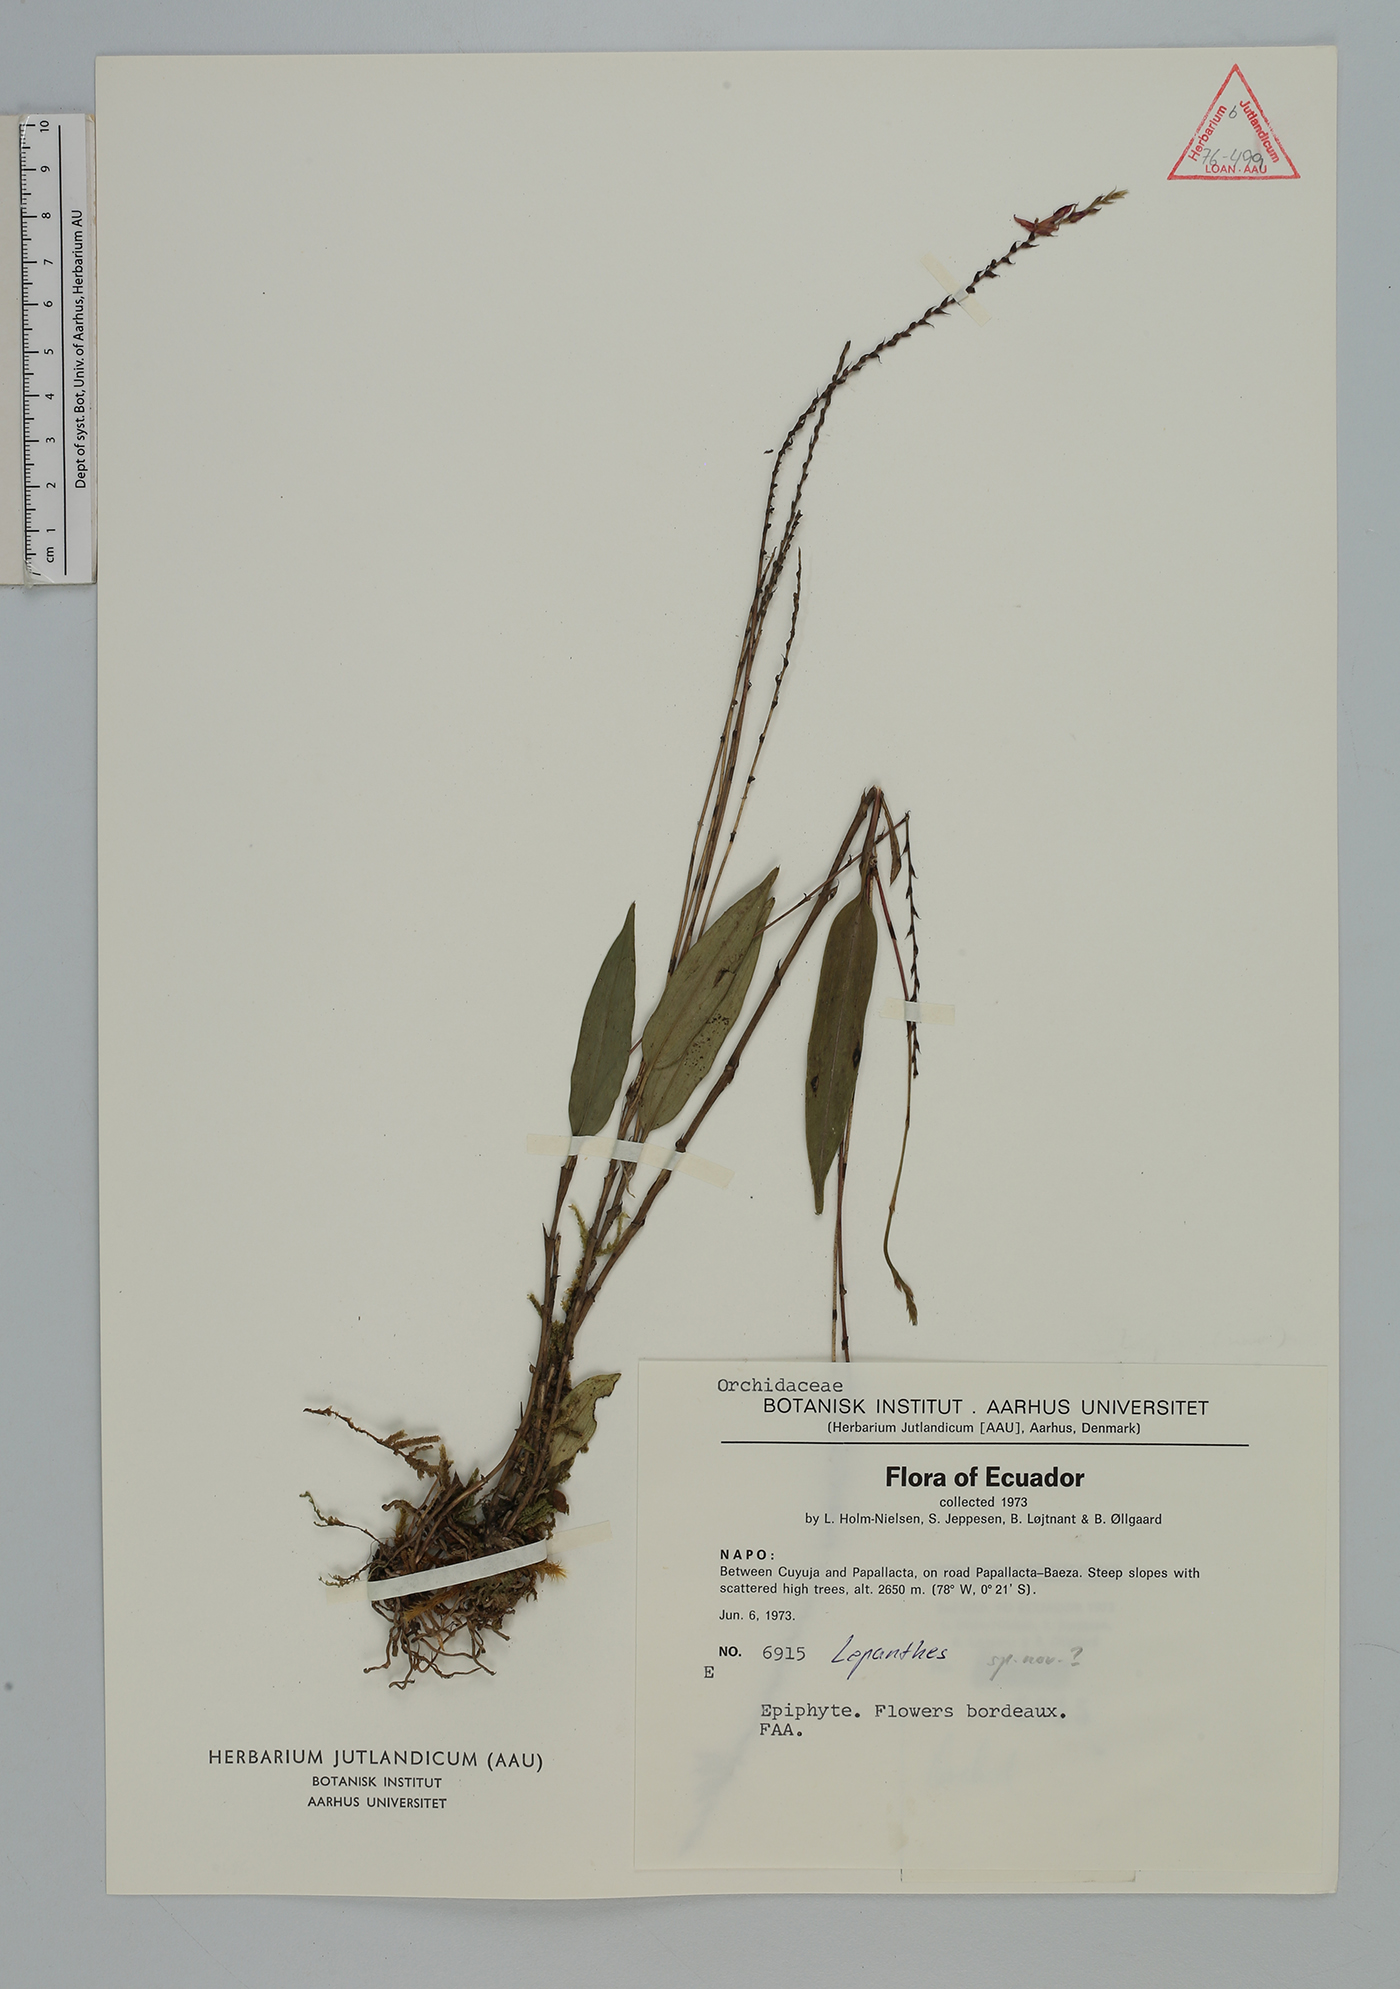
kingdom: Plantae
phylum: Tracheophyta
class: Liliopsida
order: Asparagales
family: Orchidaceae
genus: Lepanthes
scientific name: Lepanthes
